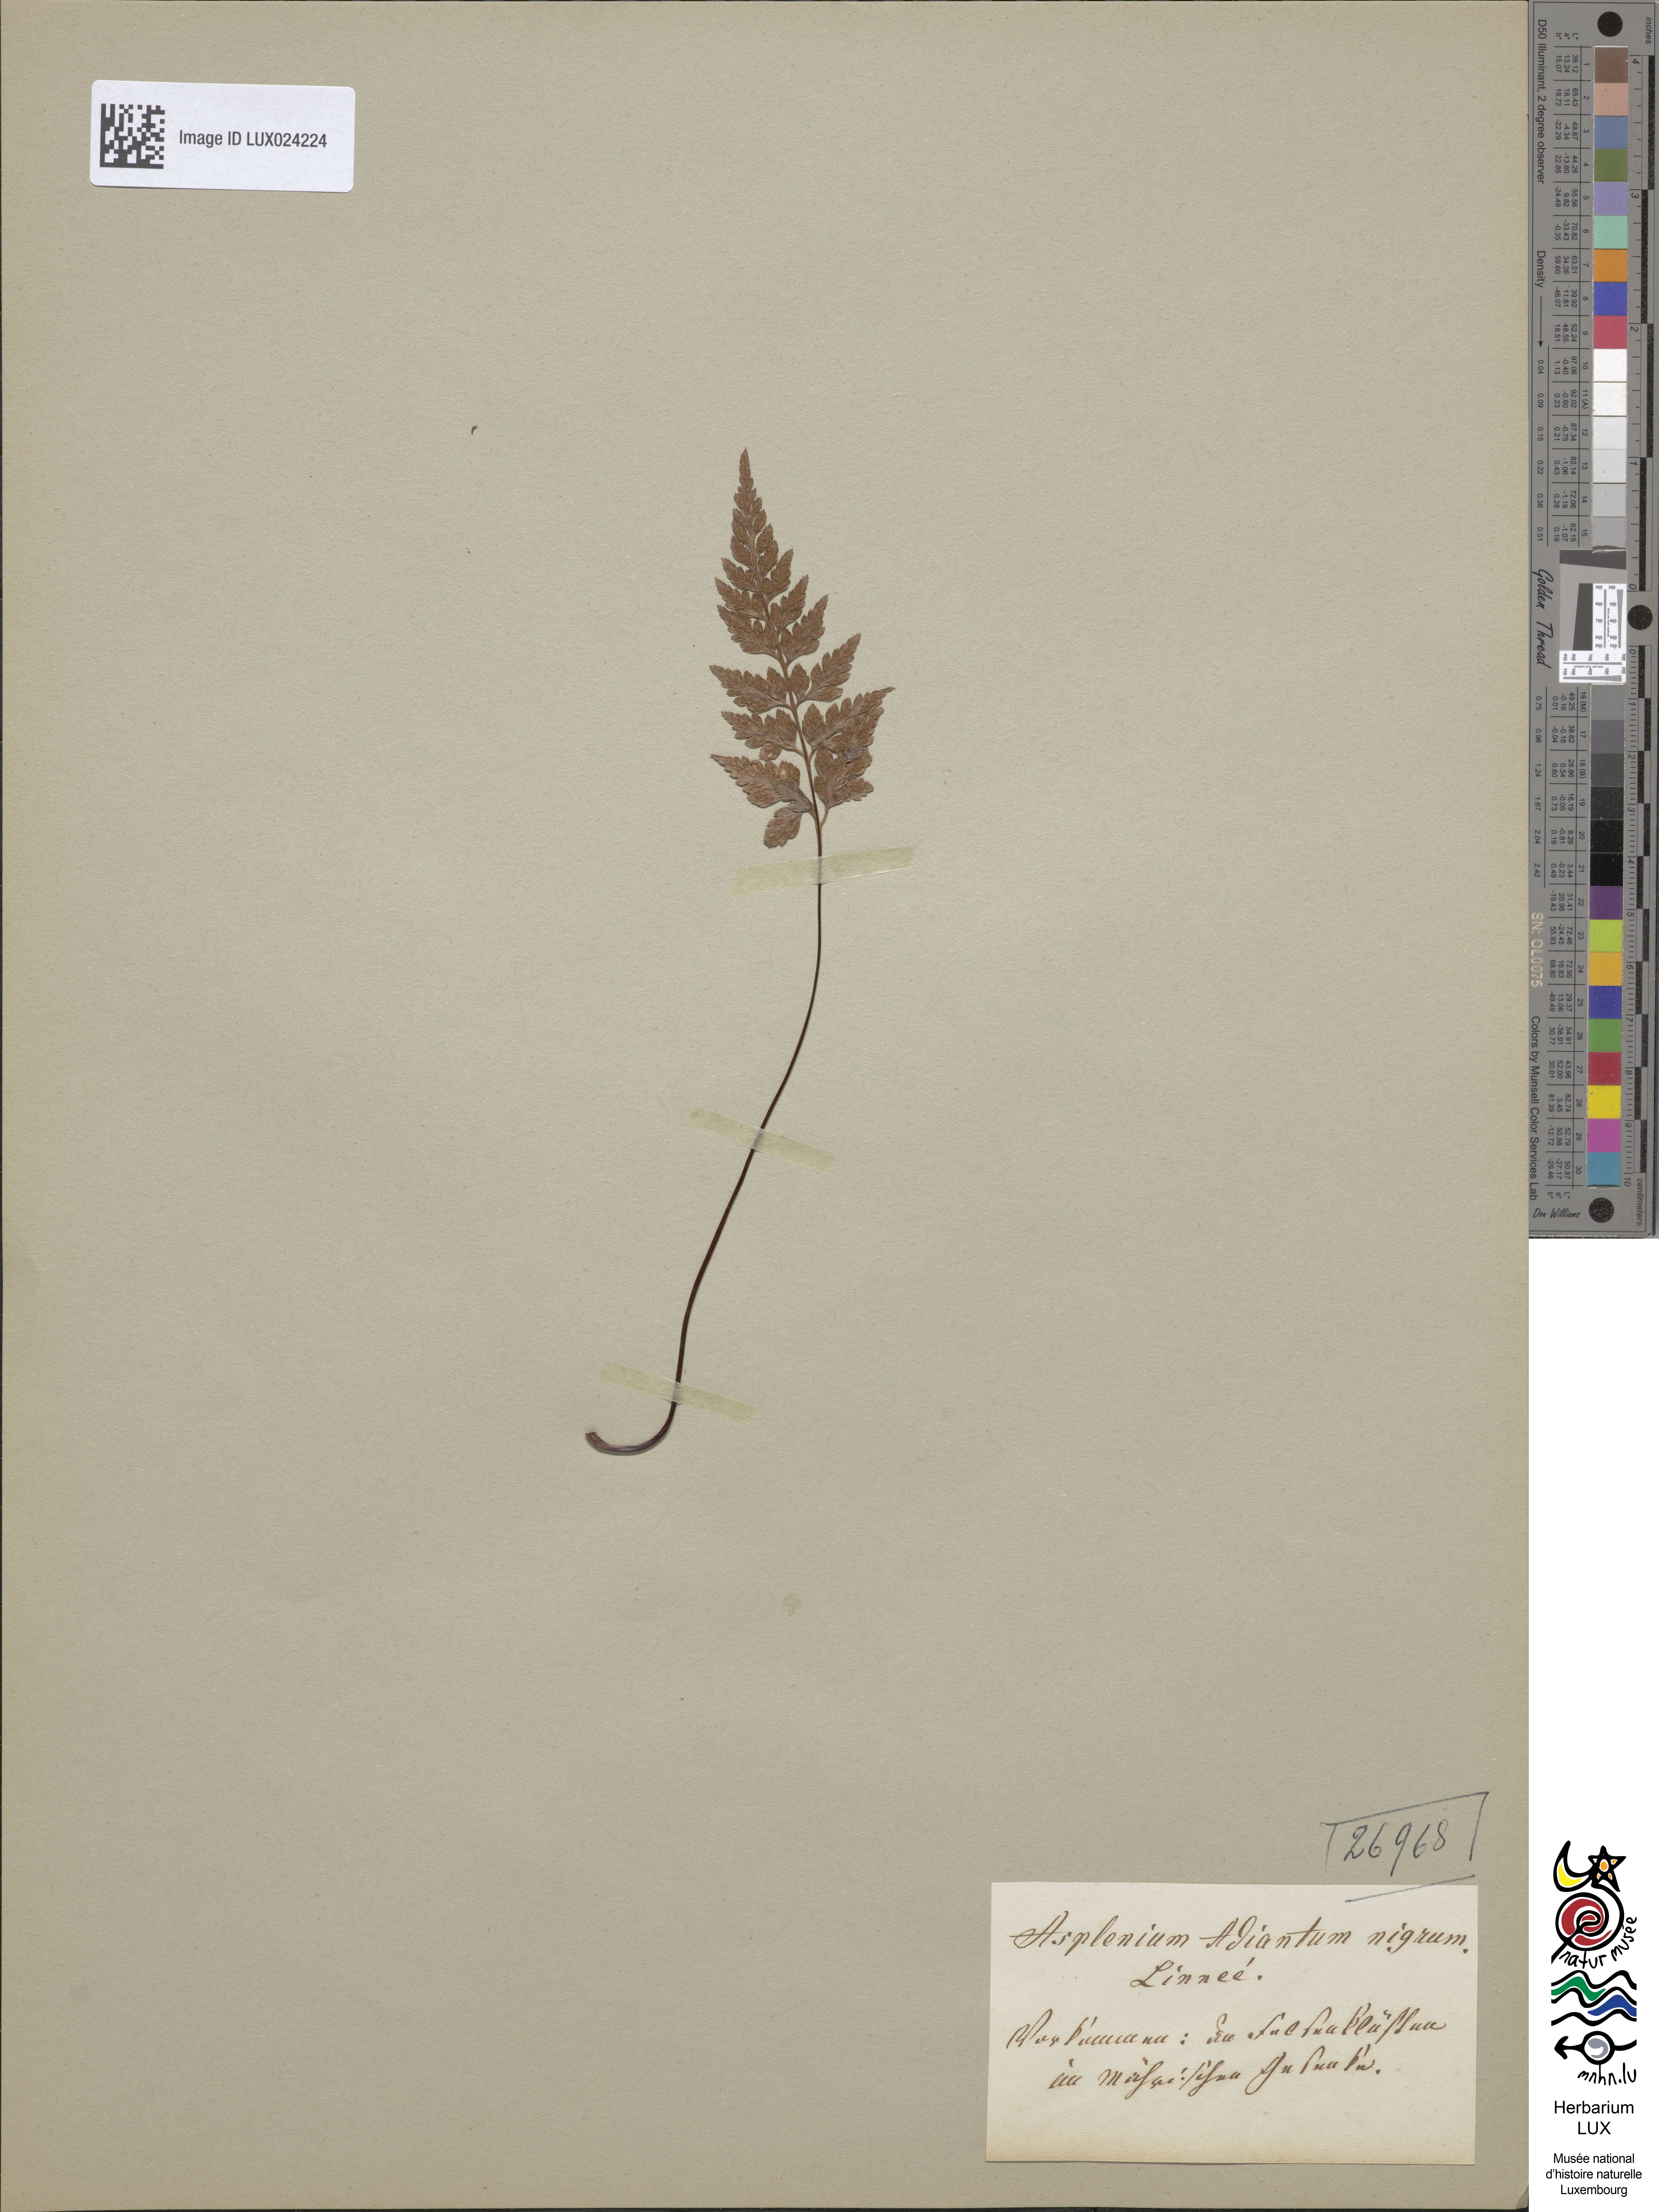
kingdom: Plantae
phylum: Tracheophyta
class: Polypodiopsida
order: Polypodiales
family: Aspleniaceae
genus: Asplenium
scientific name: Asplenium adiantum-nigrum
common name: Black spleenwort
